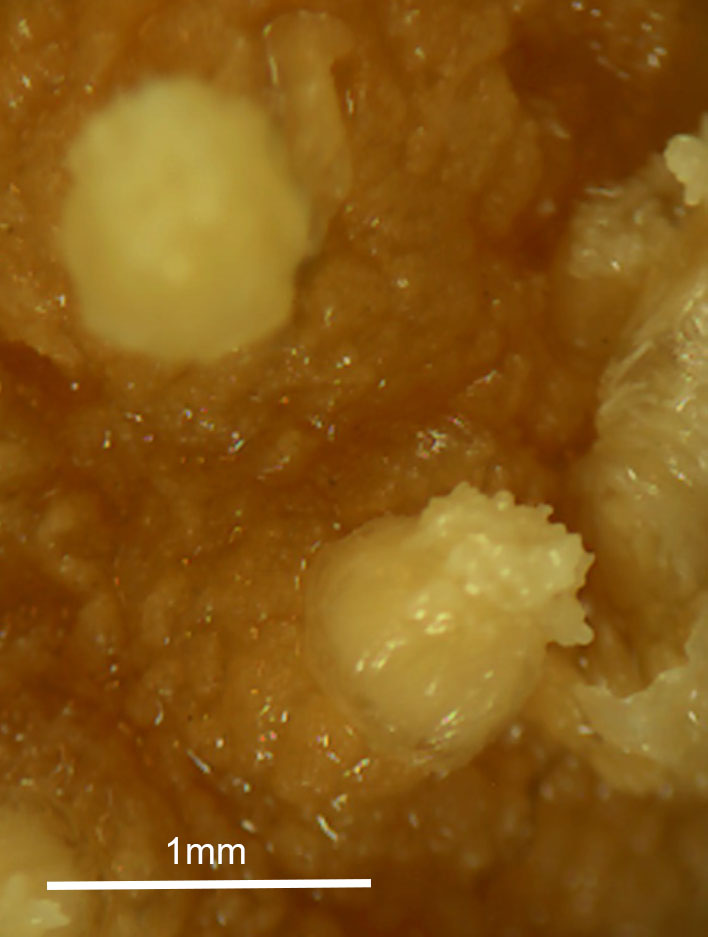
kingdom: Animalia
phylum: Cnidaria
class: Anthozoa
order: Malacalcyonacea
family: Alcyoniidae
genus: Alcyonium
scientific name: Alcyonium haddoni
